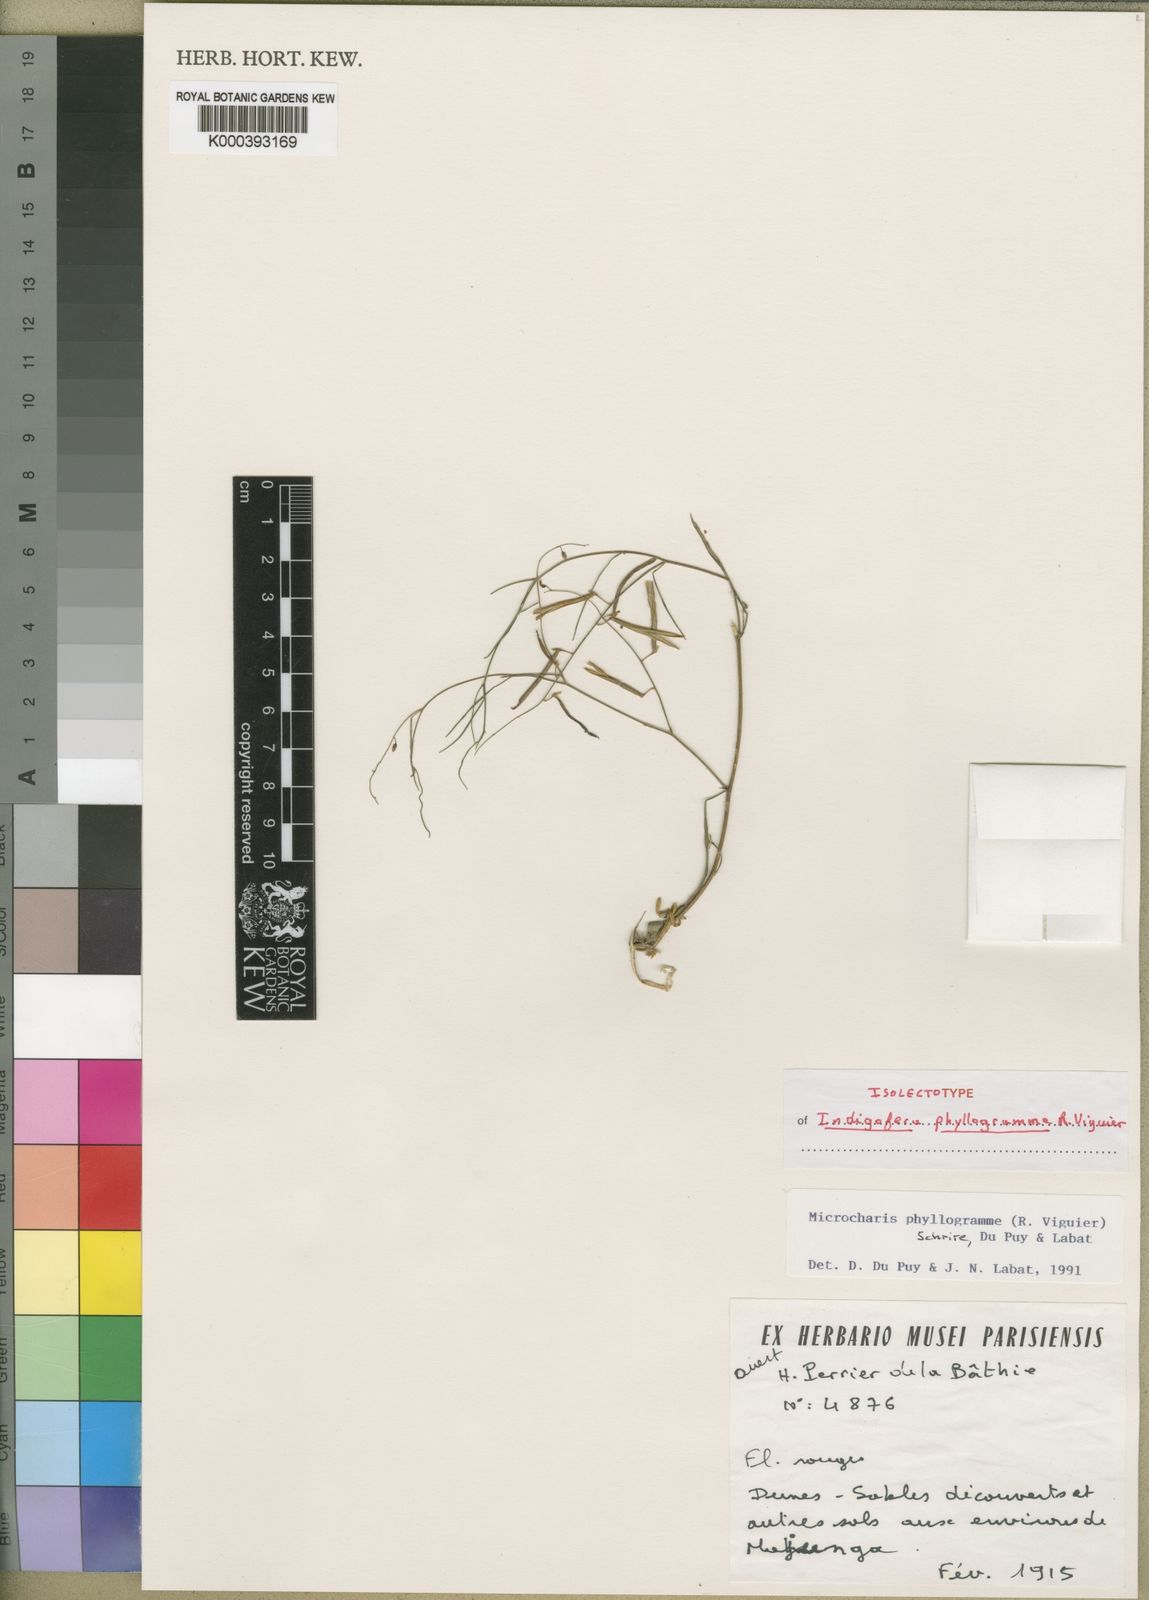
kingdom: Plantae
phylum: Tracheophyta
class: Magnoliopsida
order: Fabales
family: Fabaceae
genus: Microcharis
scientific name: Microcharis phyllogramme
